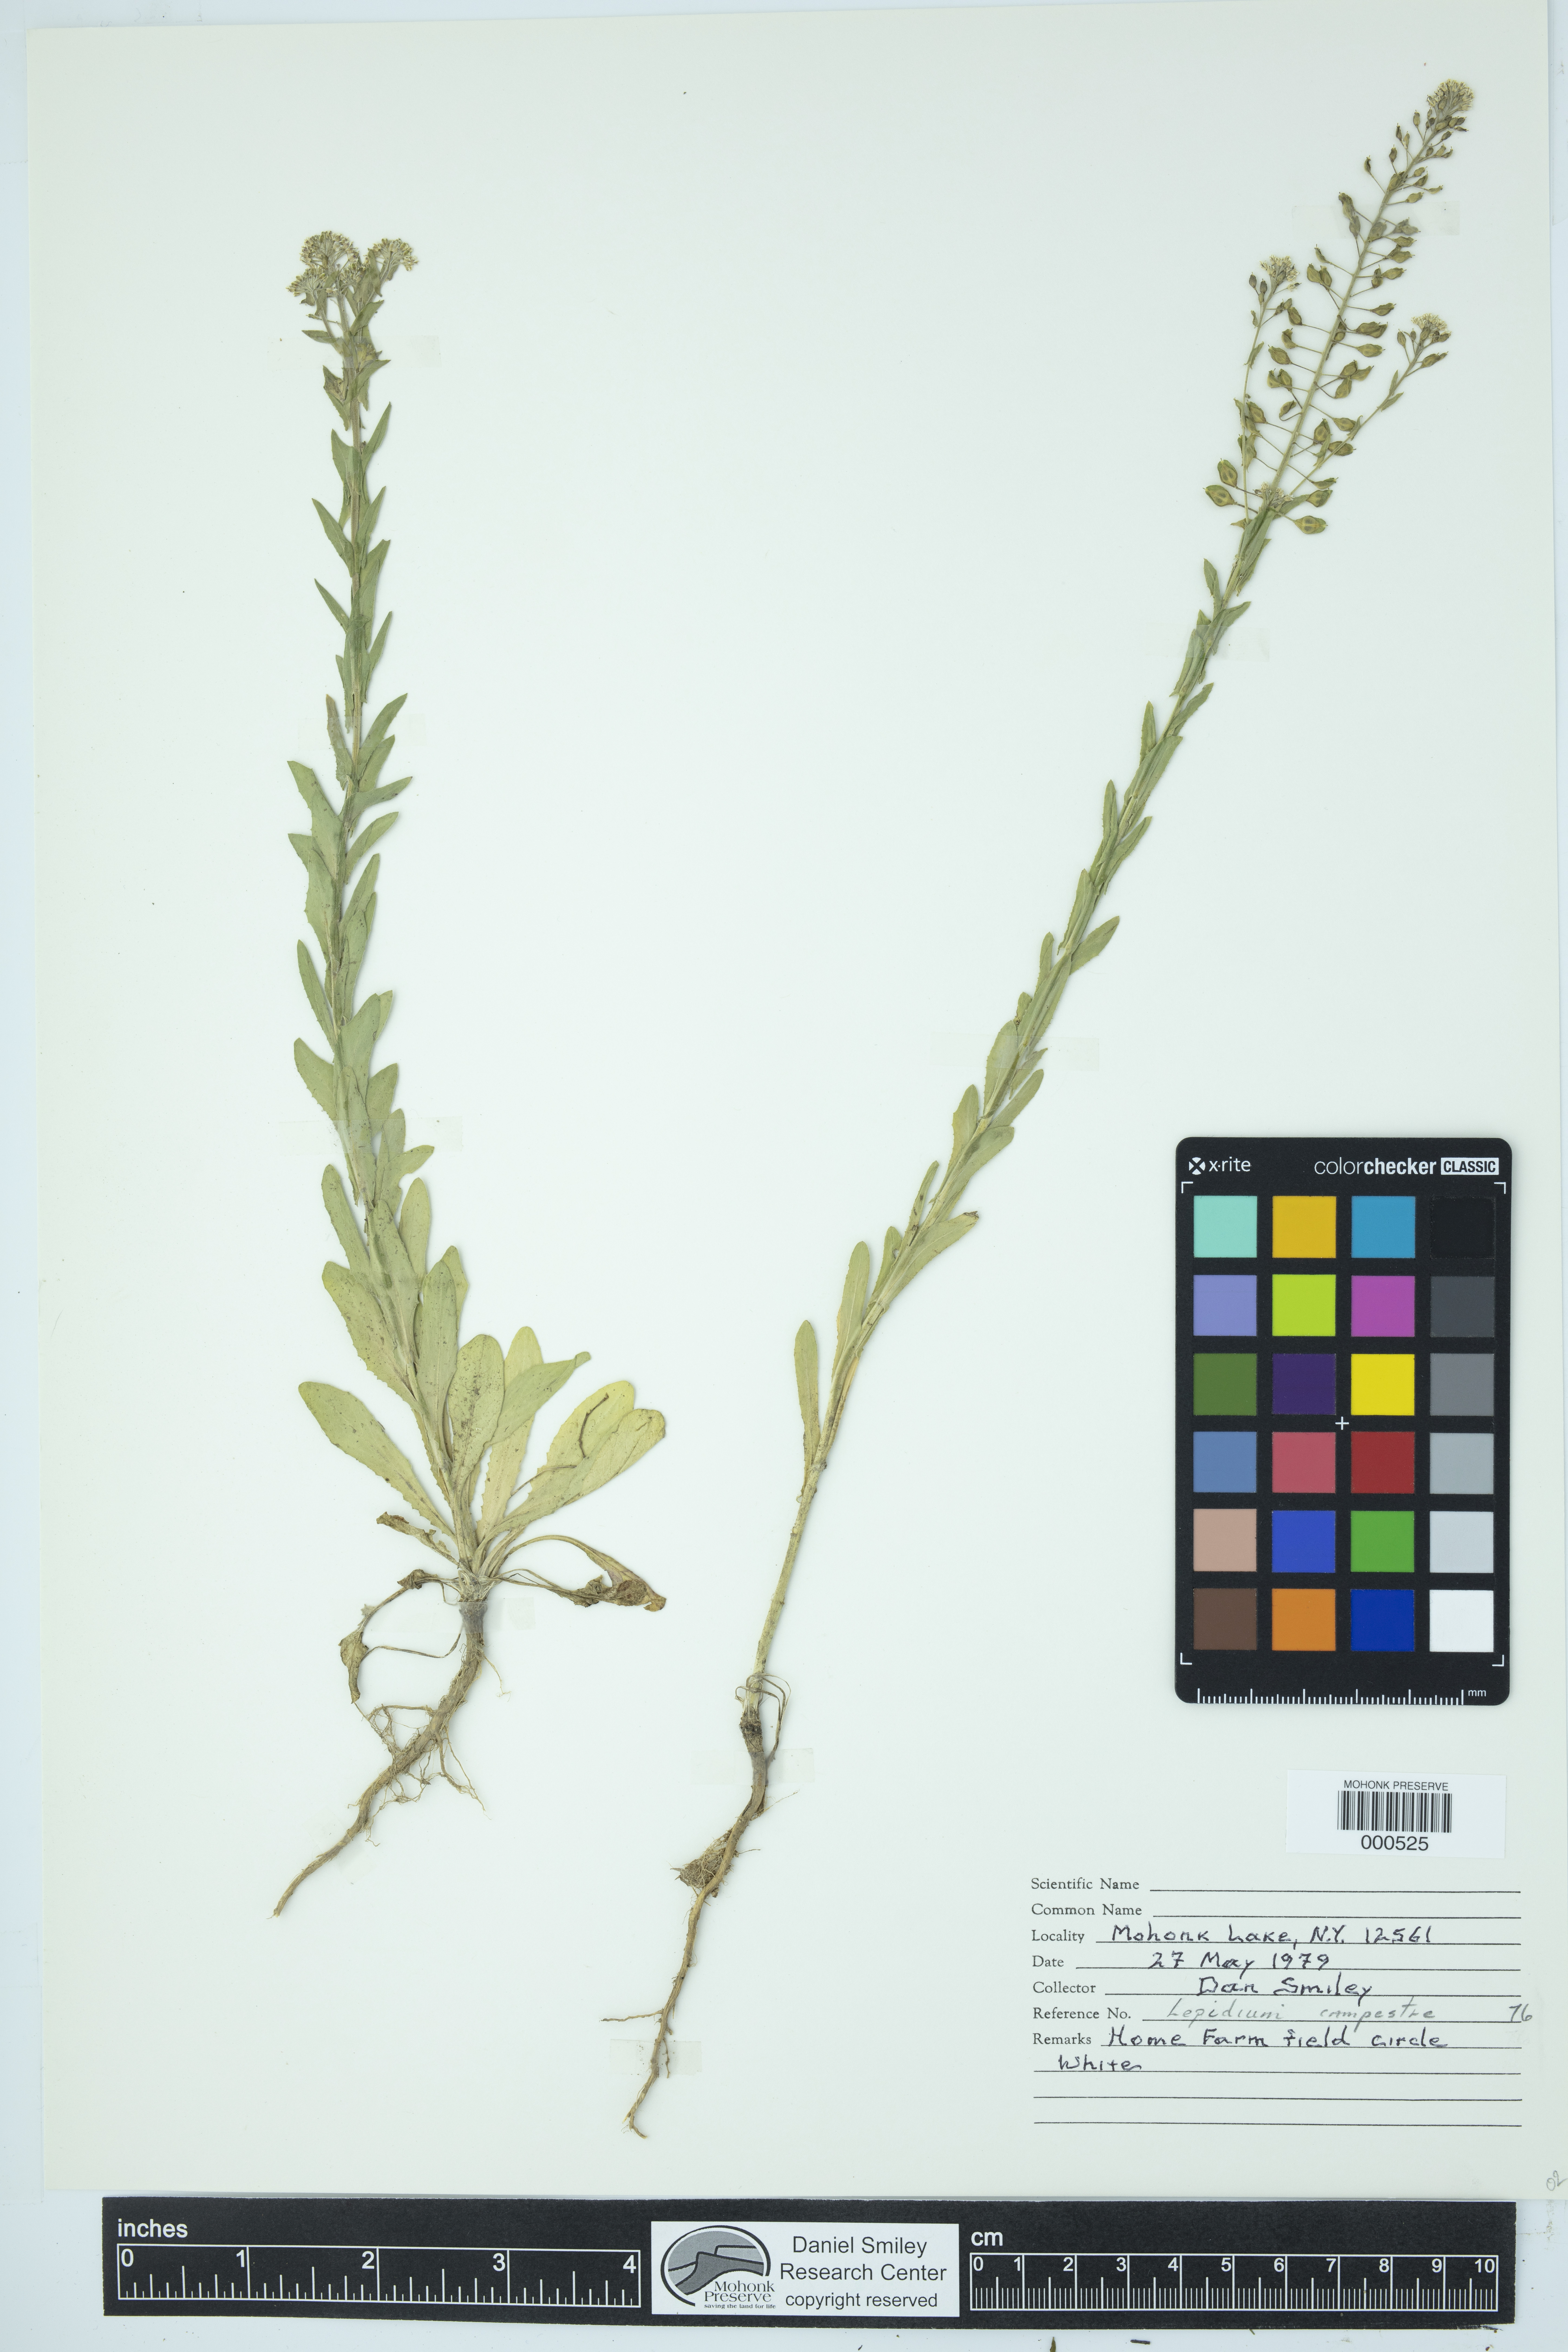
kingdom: Plantae
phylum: Tracheophyta
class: Magnoliopsida
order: Brassicales
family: Brassicaceae
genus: Lepidium
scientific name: Lepidium campestre
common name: Field pepperwort
